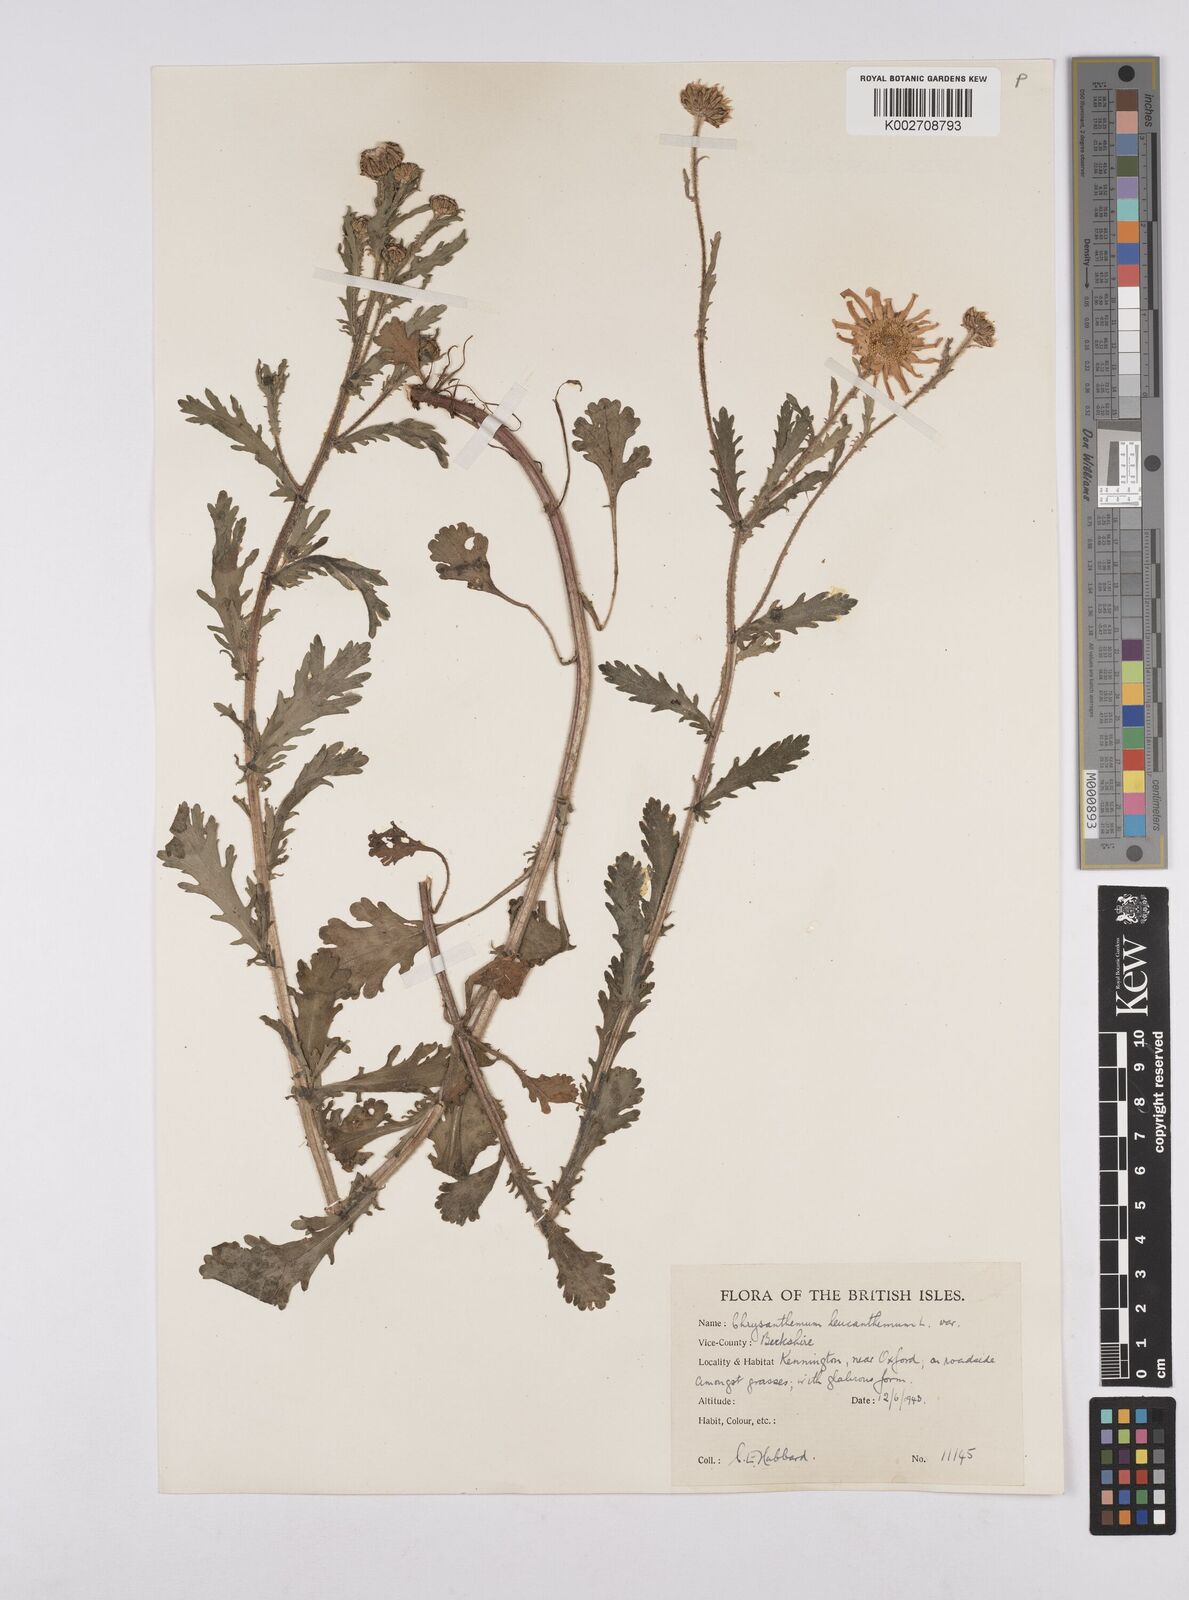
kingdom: Plantae
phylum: Tracheophyta
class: Magnoliopsida
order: Asterales
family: Asteraceae
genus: Leucanthemum
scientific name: Leucanthemum vulgare
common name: Oxeye daisy
